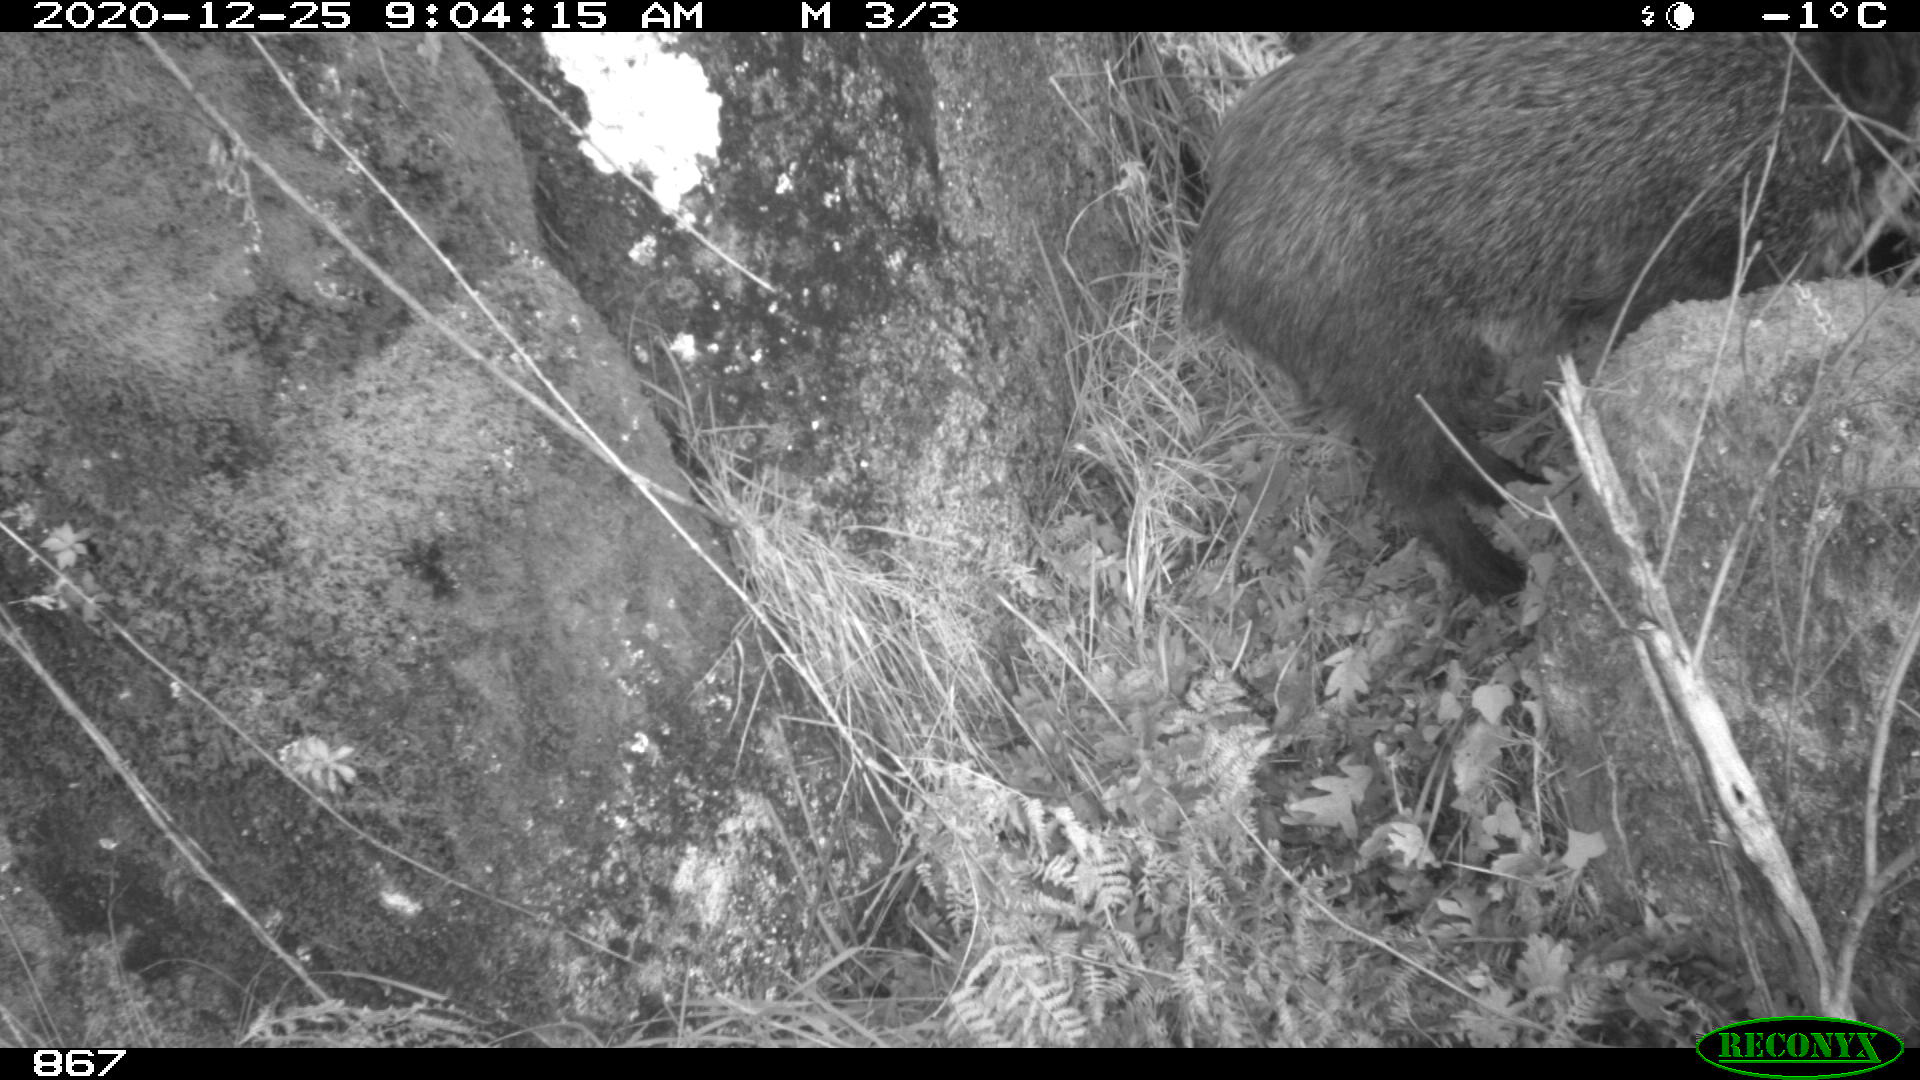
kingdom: Animalia
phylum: Chordata
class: Mammalia
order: Artiodactyla
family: Suidae
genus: Sus
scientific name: Sus scrofa
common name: Wild boar
